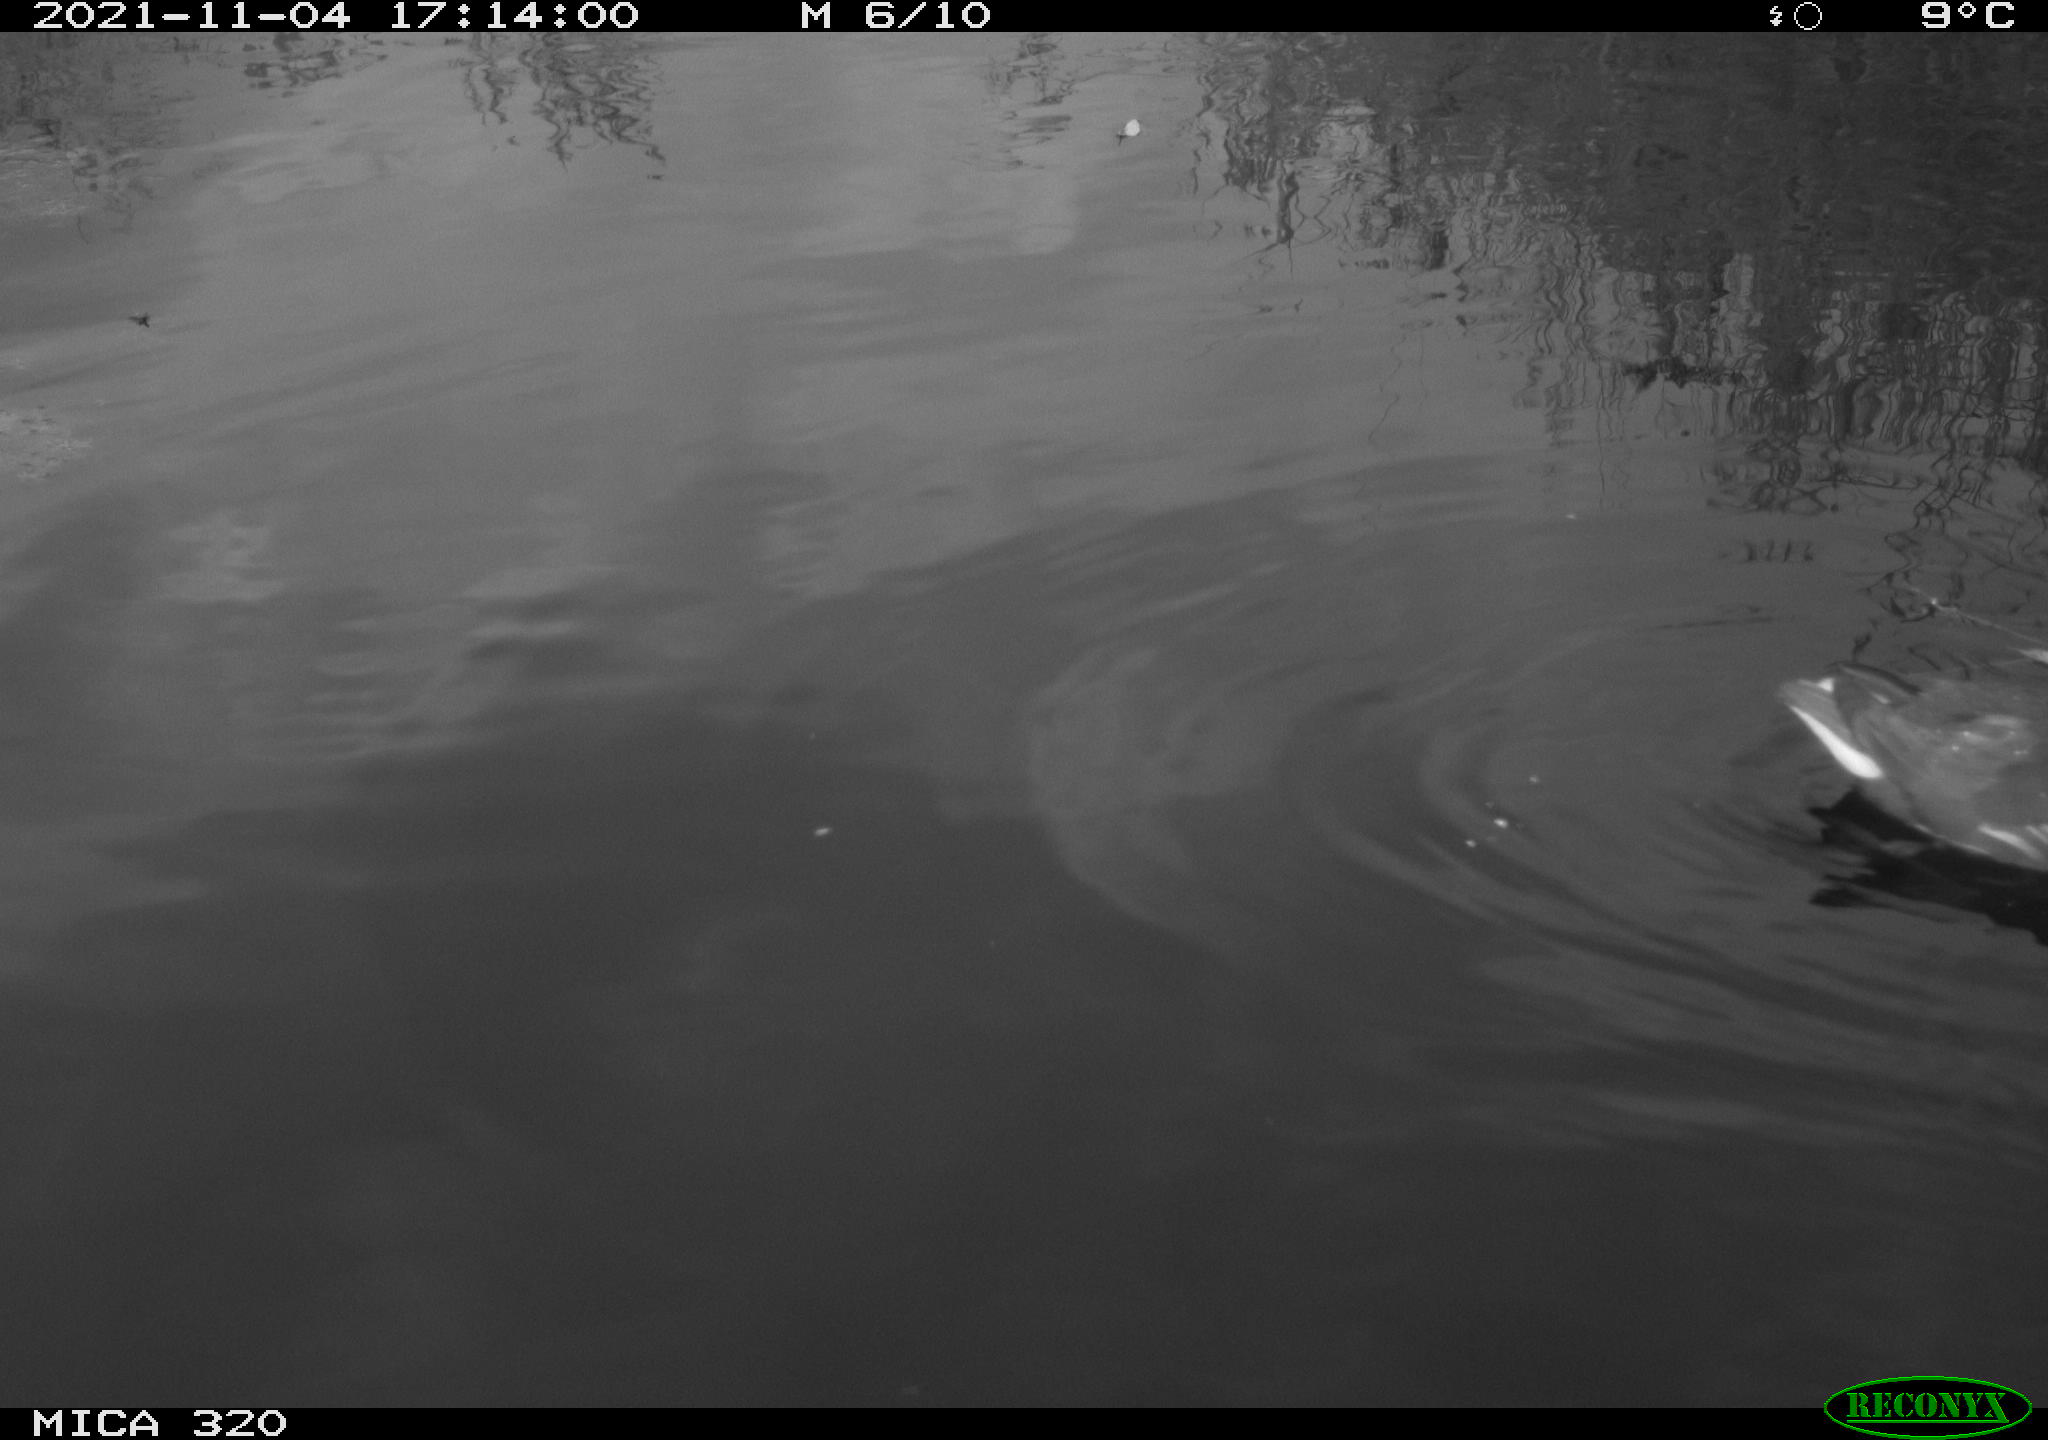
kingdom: Animalia
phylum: Chordata
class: Aves
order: Anseriformes
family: Anatidae
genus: Mareca
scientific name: Mareca strepera
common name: Gadwall
